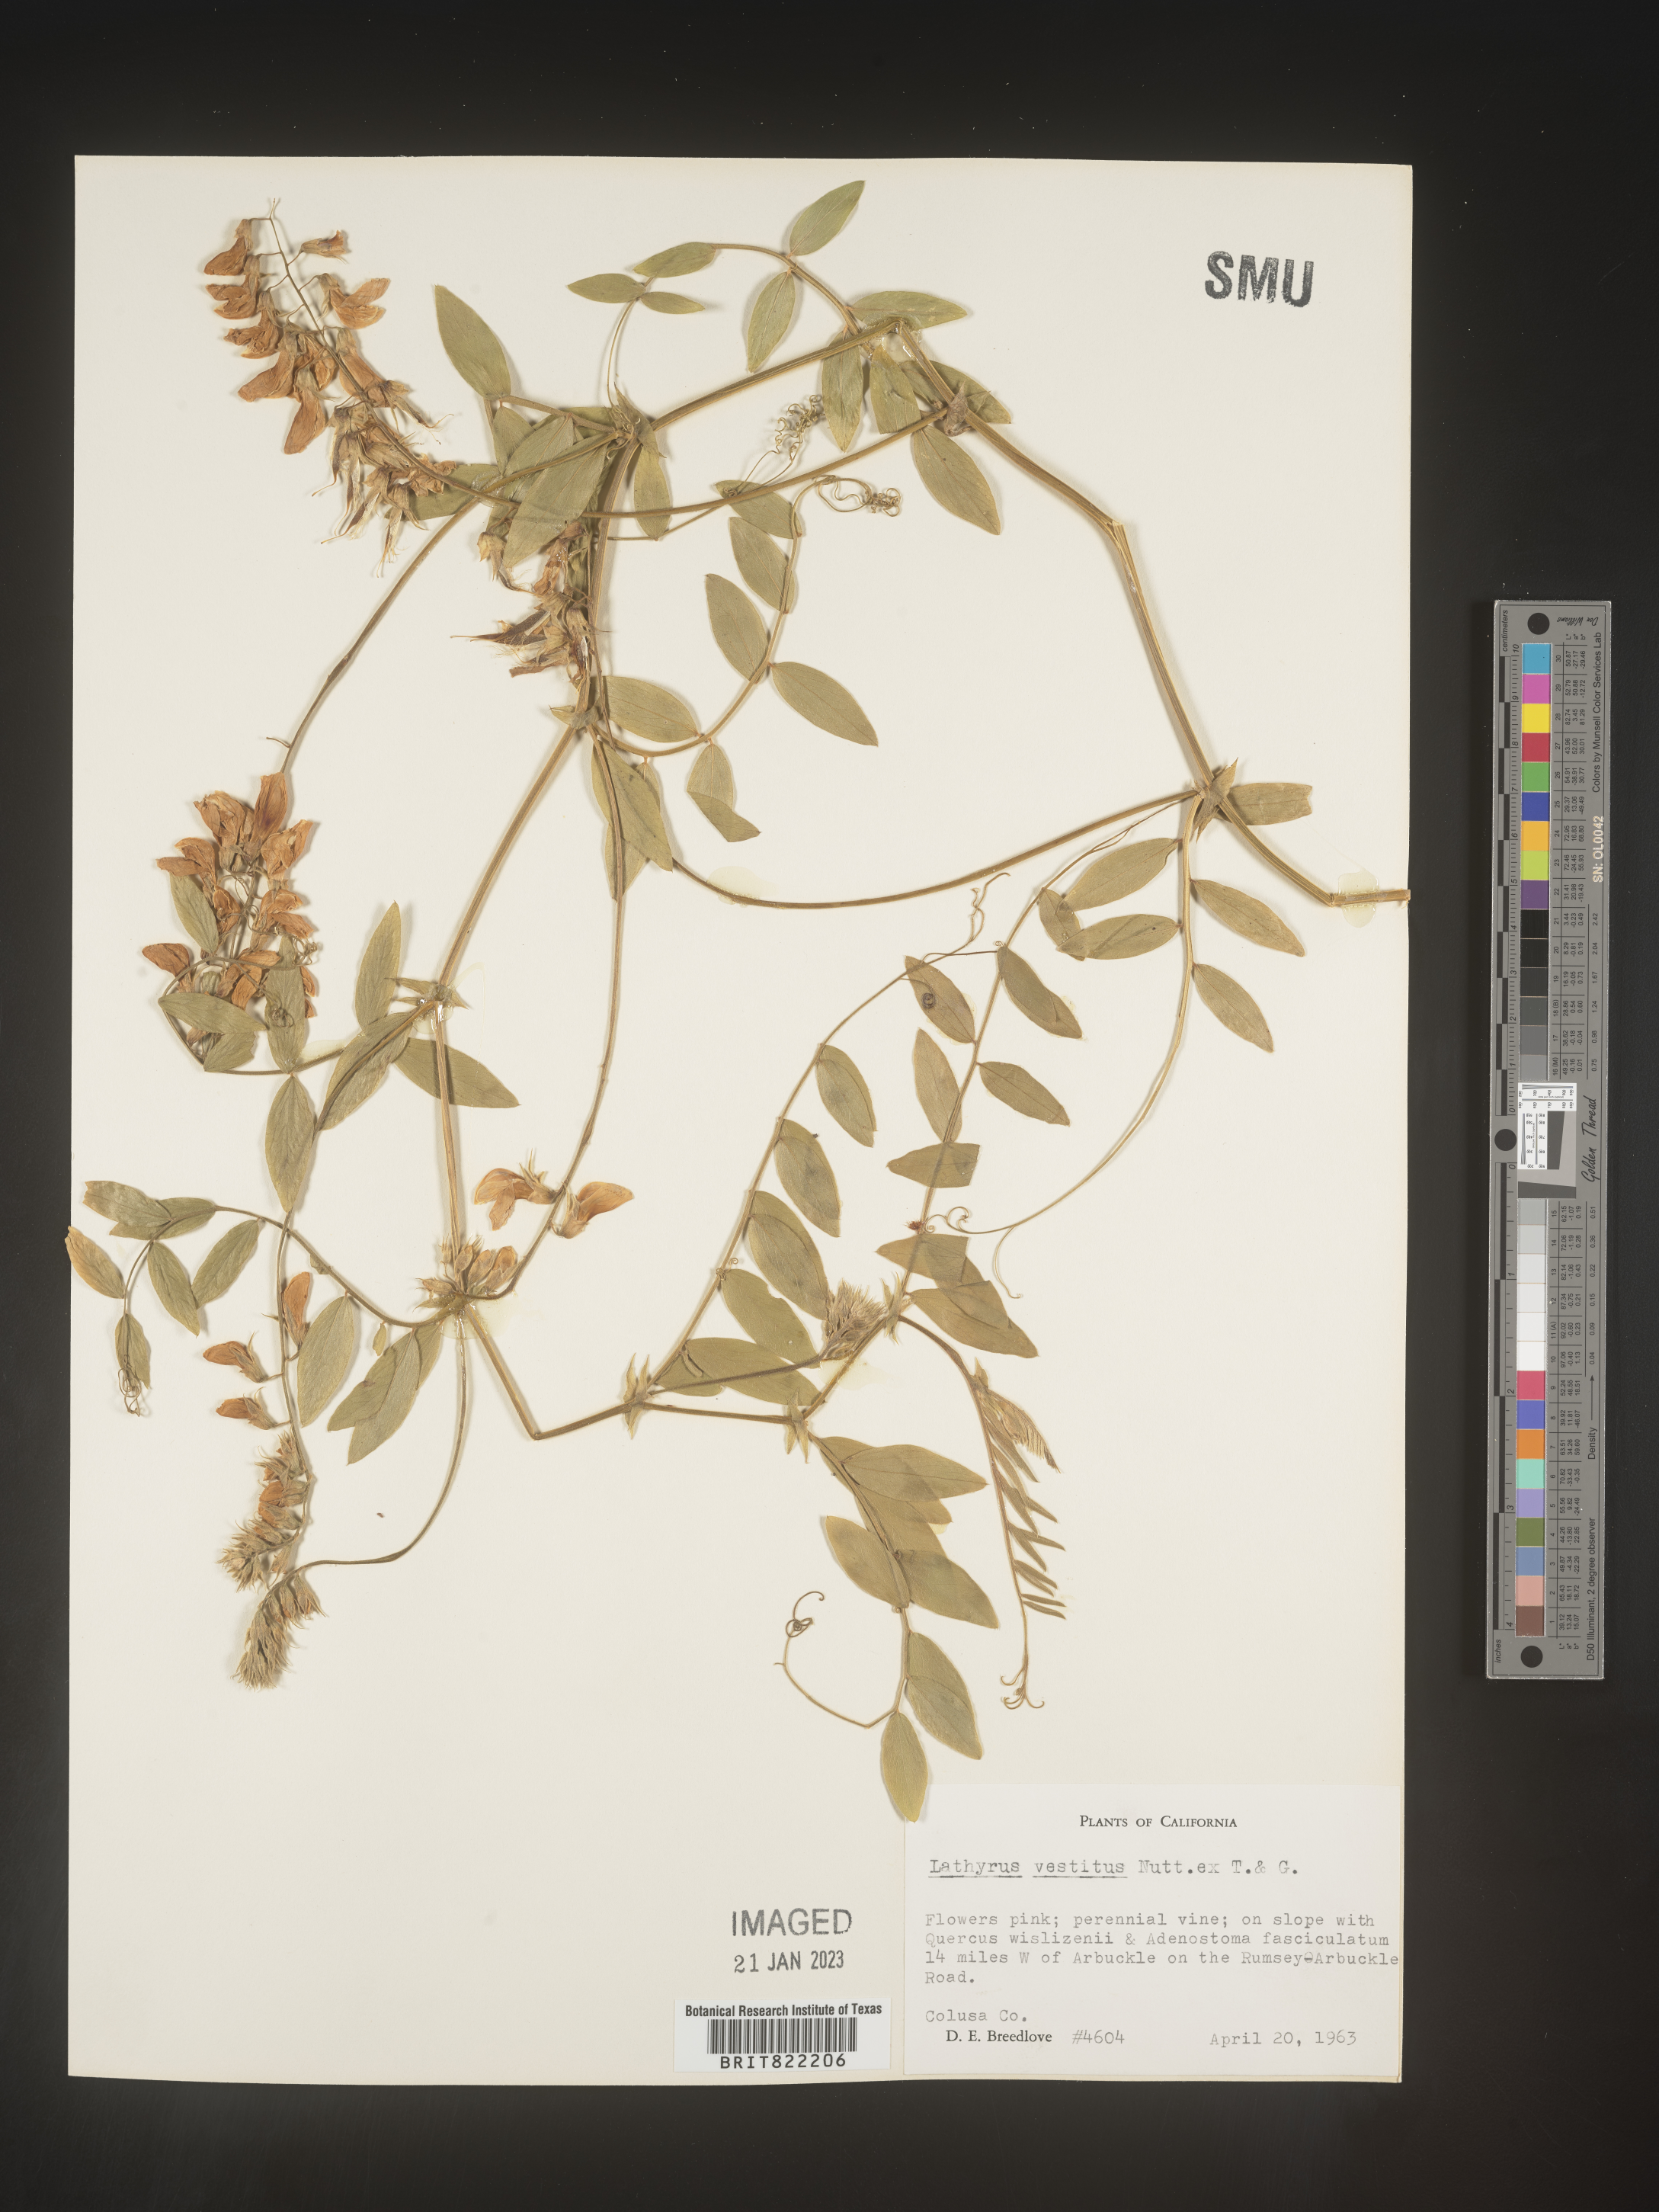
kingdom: Plantae
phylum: Tracheophyta
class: Magnoliopsida
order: Fabales
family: Fabaceae
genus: Lathyrus
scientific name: Lathyrus vestitus
